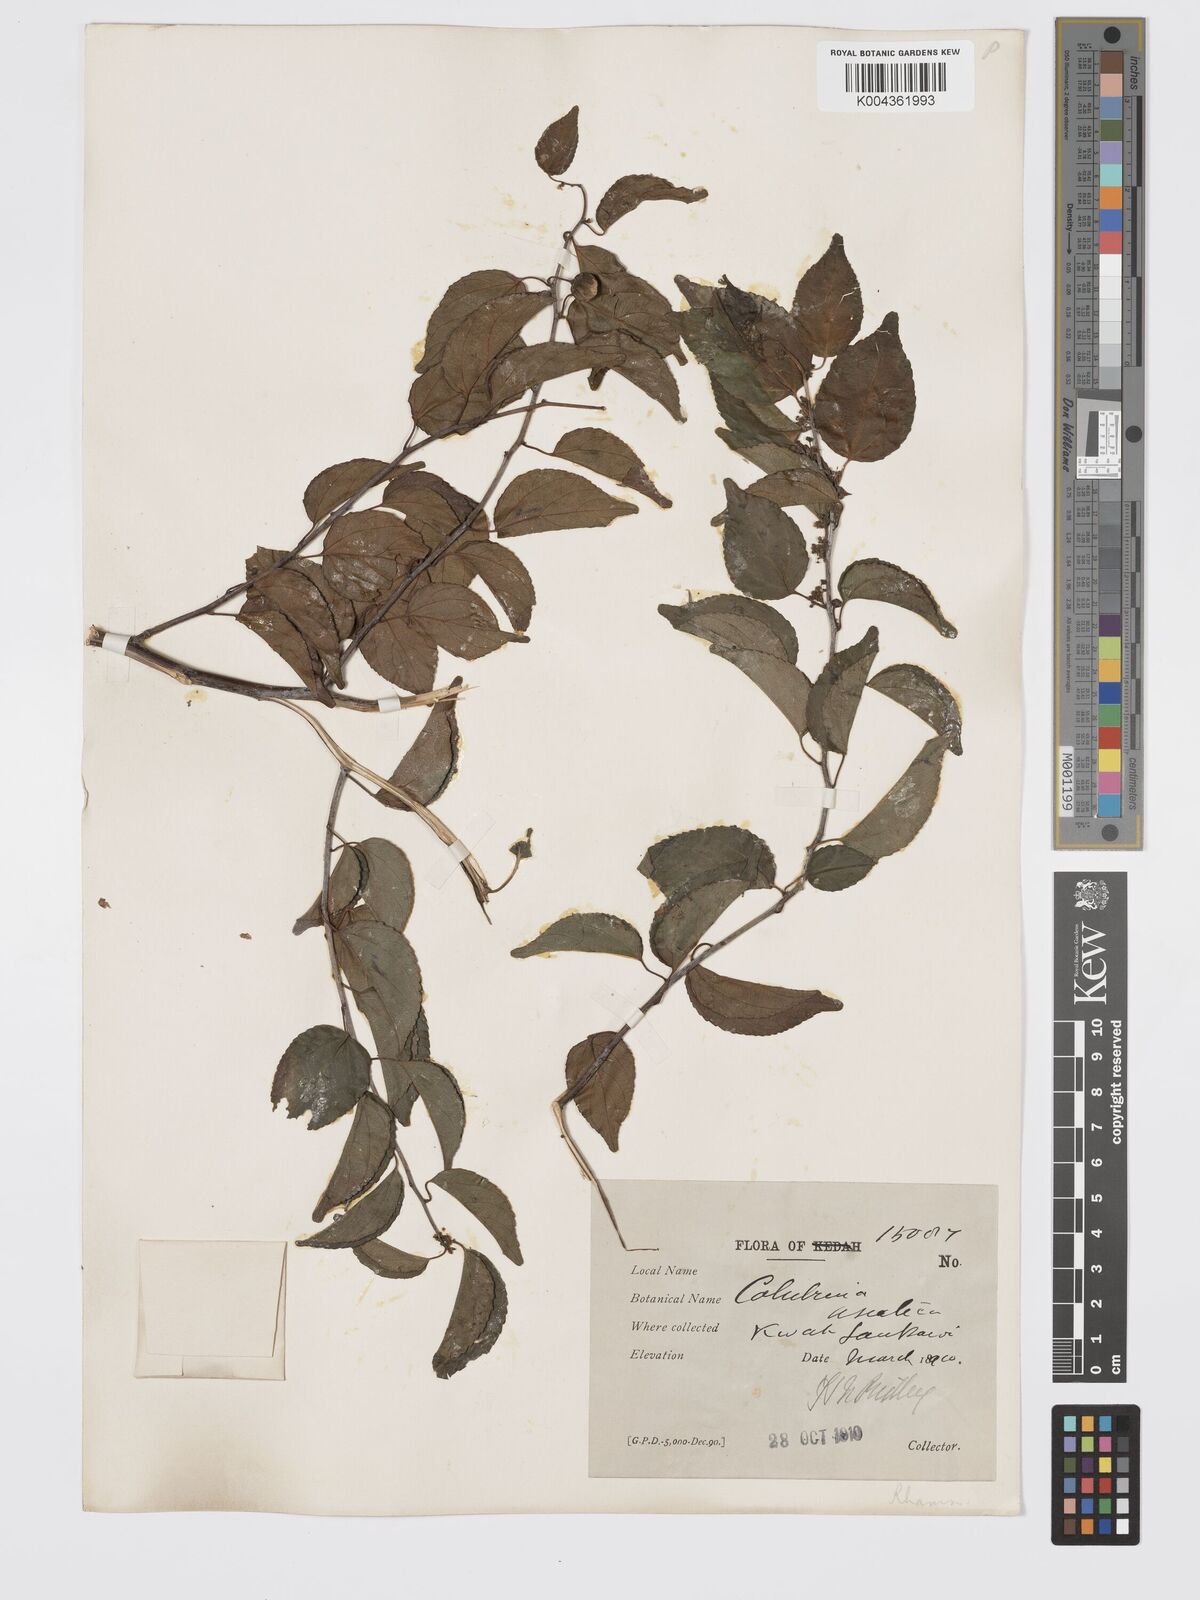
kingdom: Plantae
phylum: Tracheophyta
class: Magnoliopsida
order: Rosales
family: Rhamnaceae
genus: Colubrina
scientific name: Colubrina asiatica
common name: Asian nakedwood
